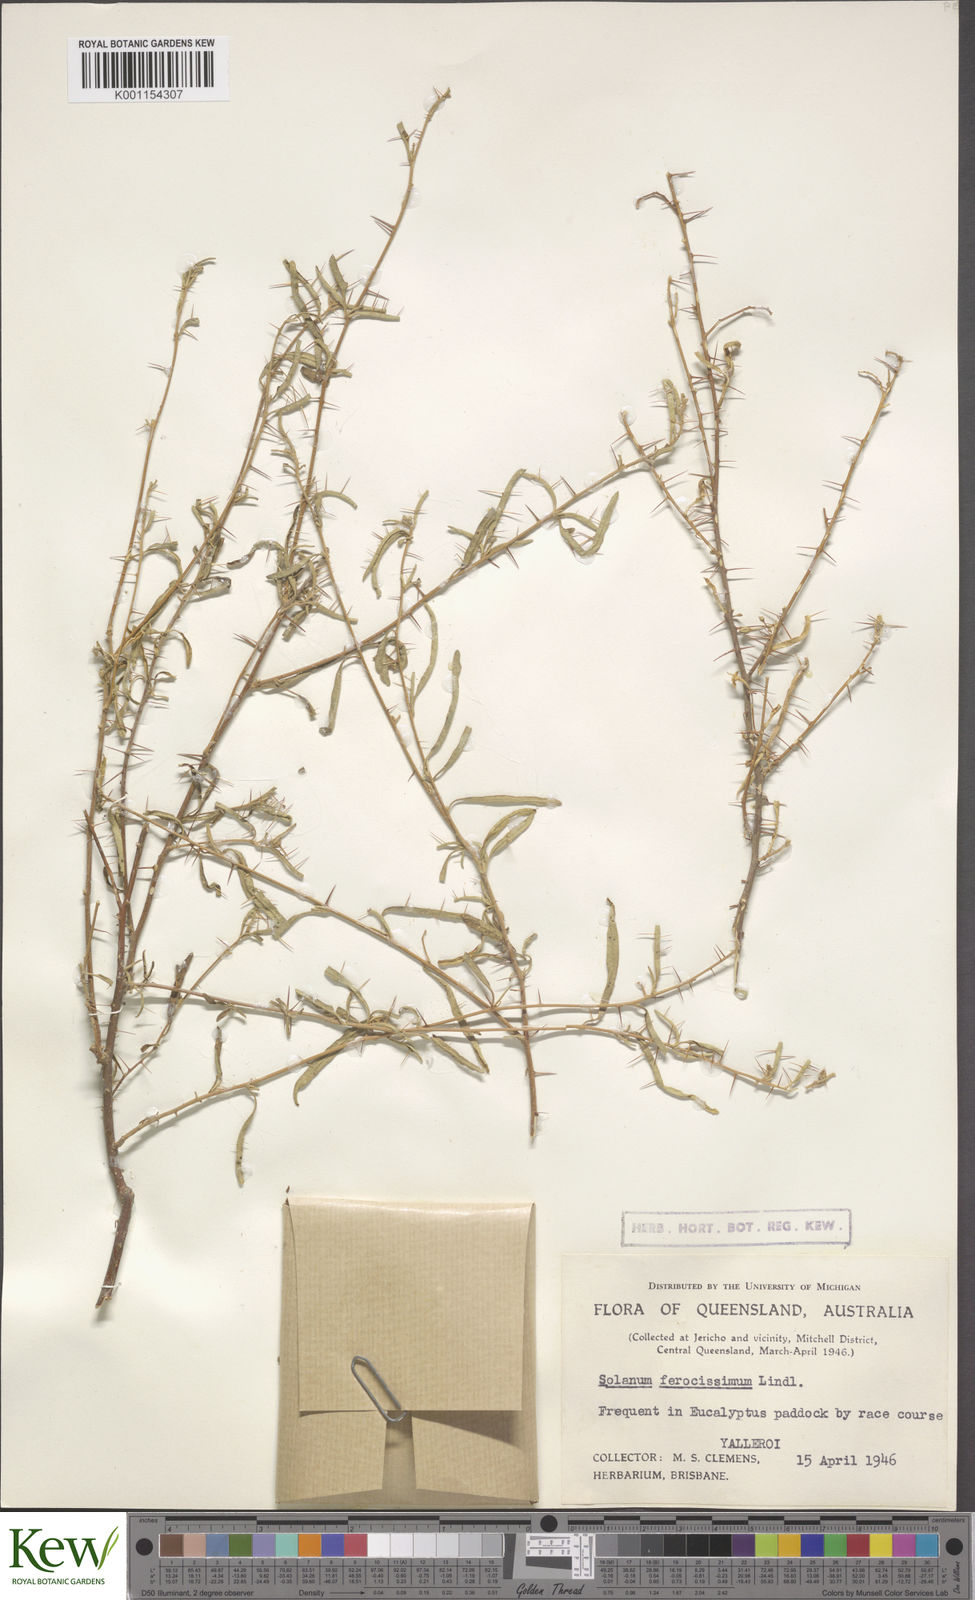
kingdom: Plantae
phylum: Tracheophyta
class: Magnoliopsida
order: Solanales
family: Solanaceae
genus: Solanum
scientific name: Solanum ferocissimum
